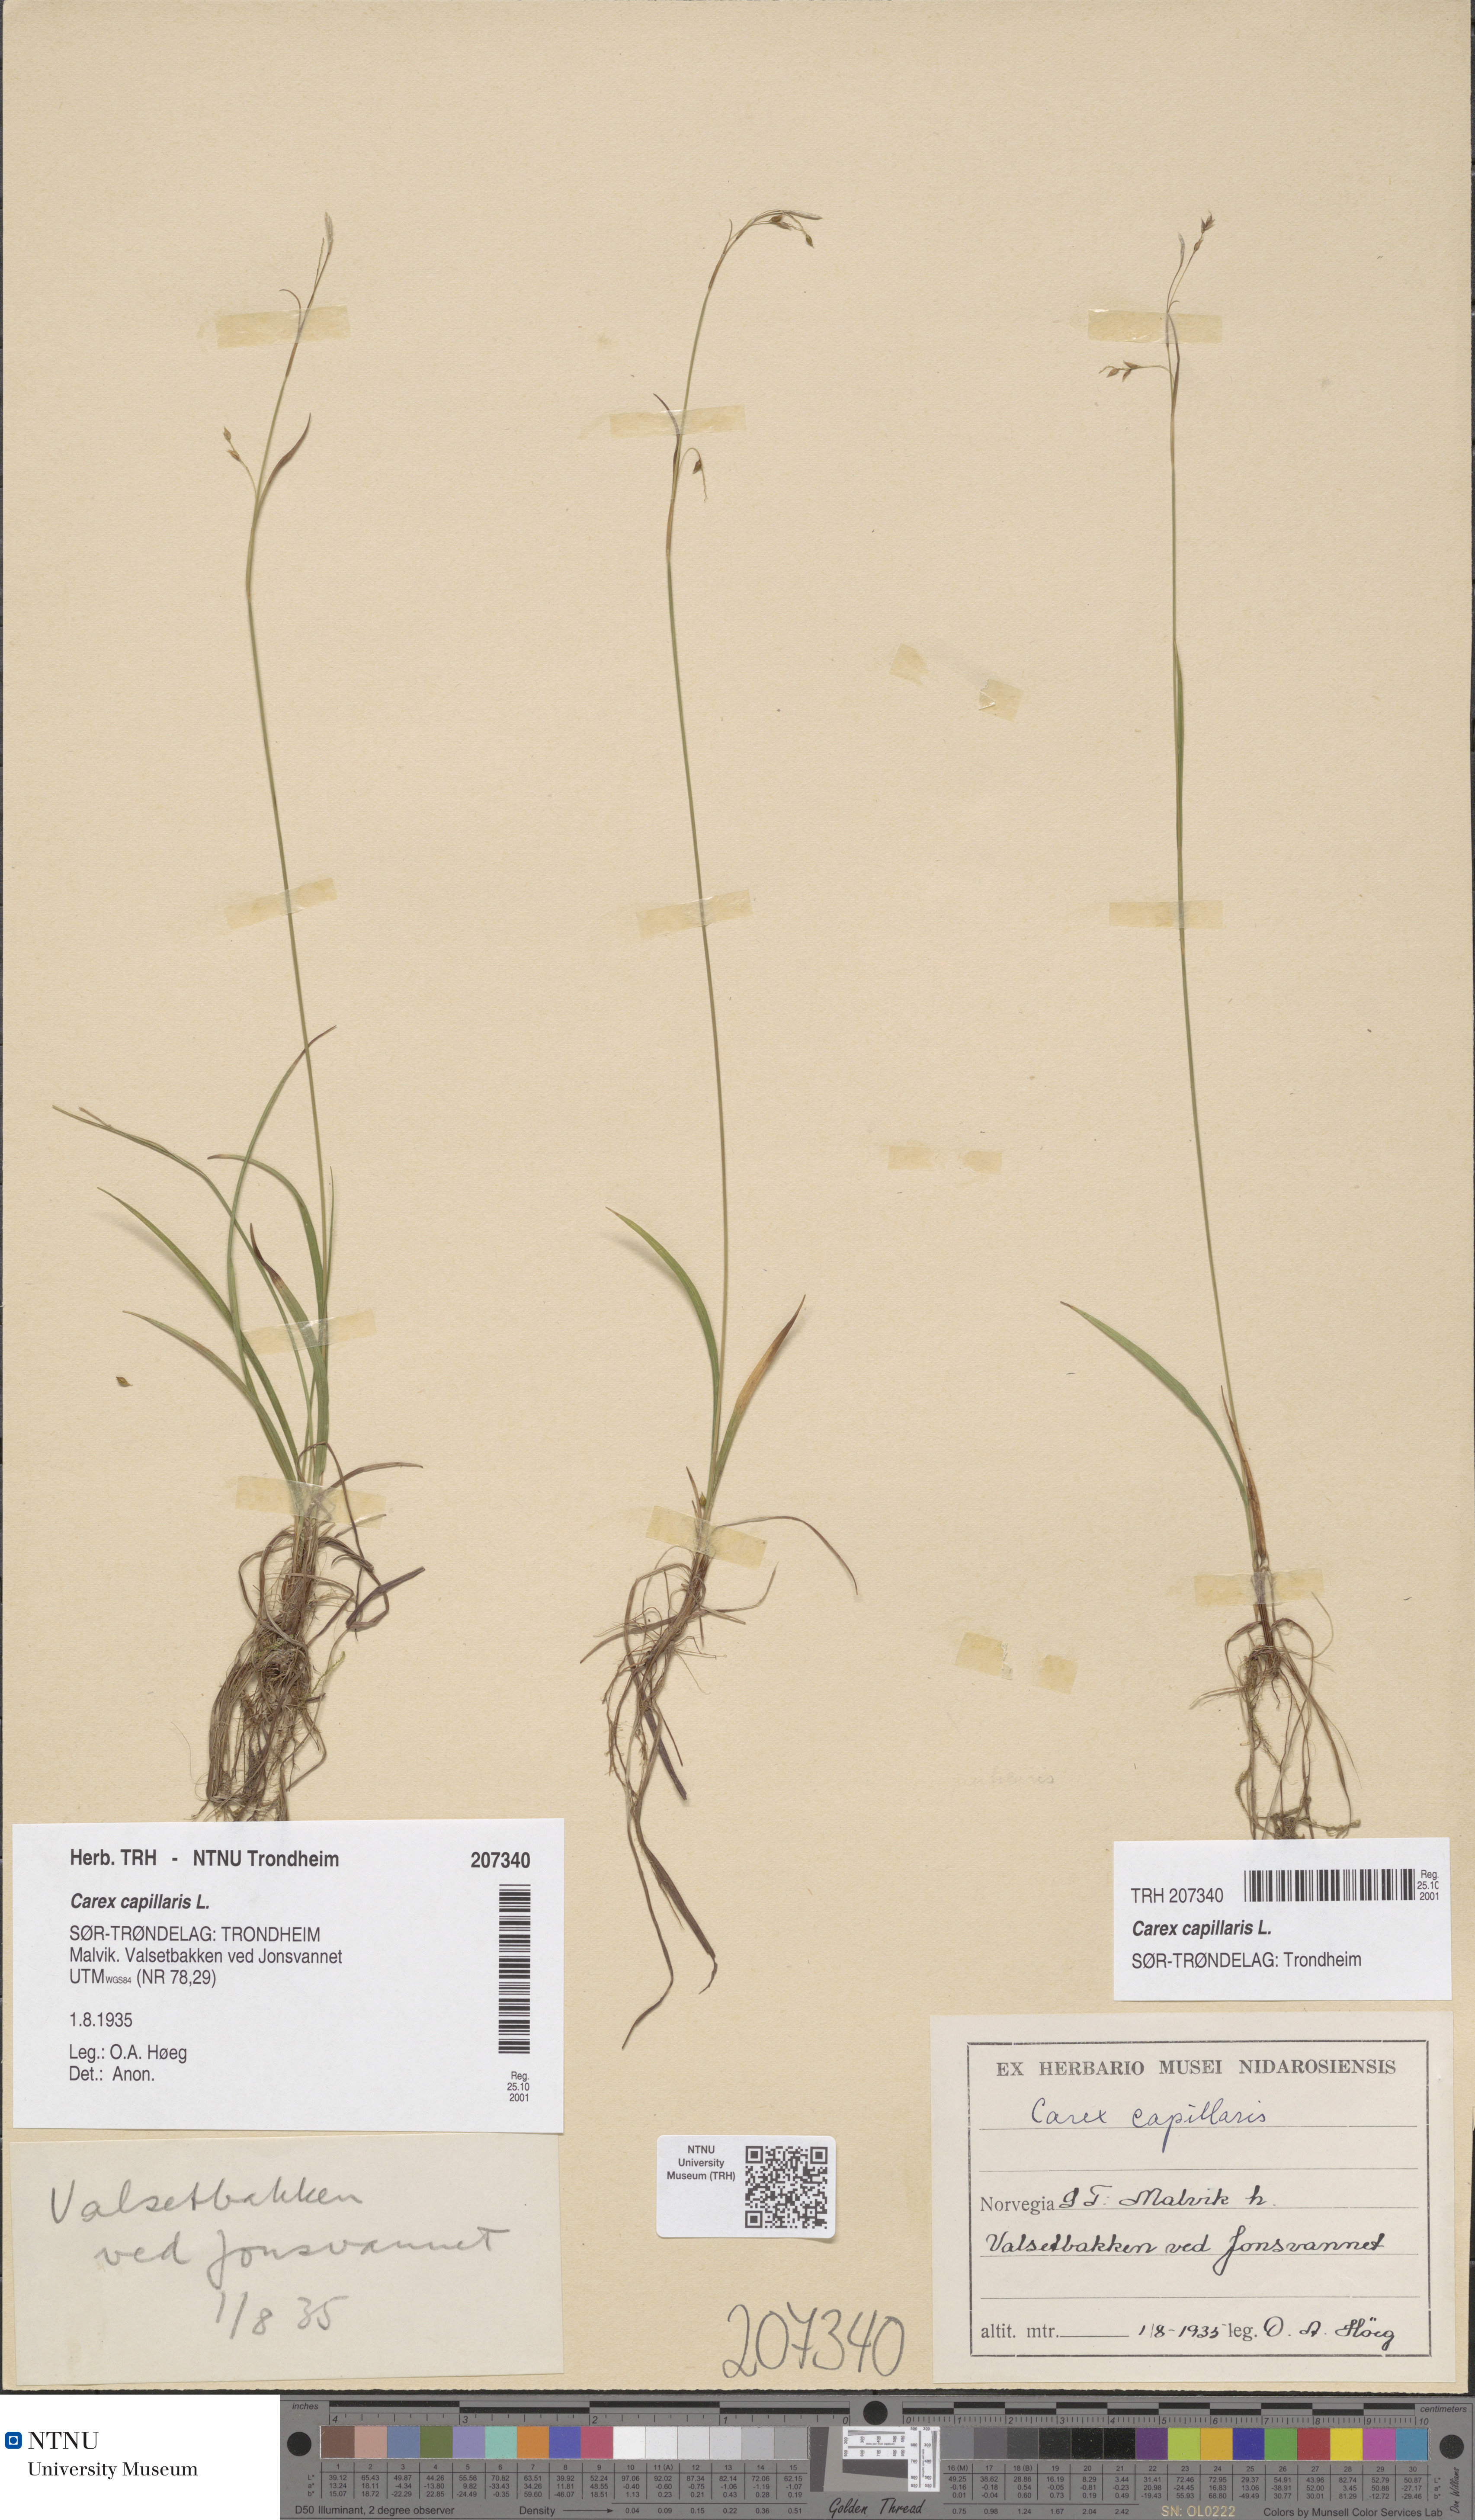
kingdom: Plantae
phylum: Tracheophyta
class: Liliopsida
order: Poales
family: Cyperaceae
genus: Carex
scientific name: Carex capillaris
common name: Hair sedge
